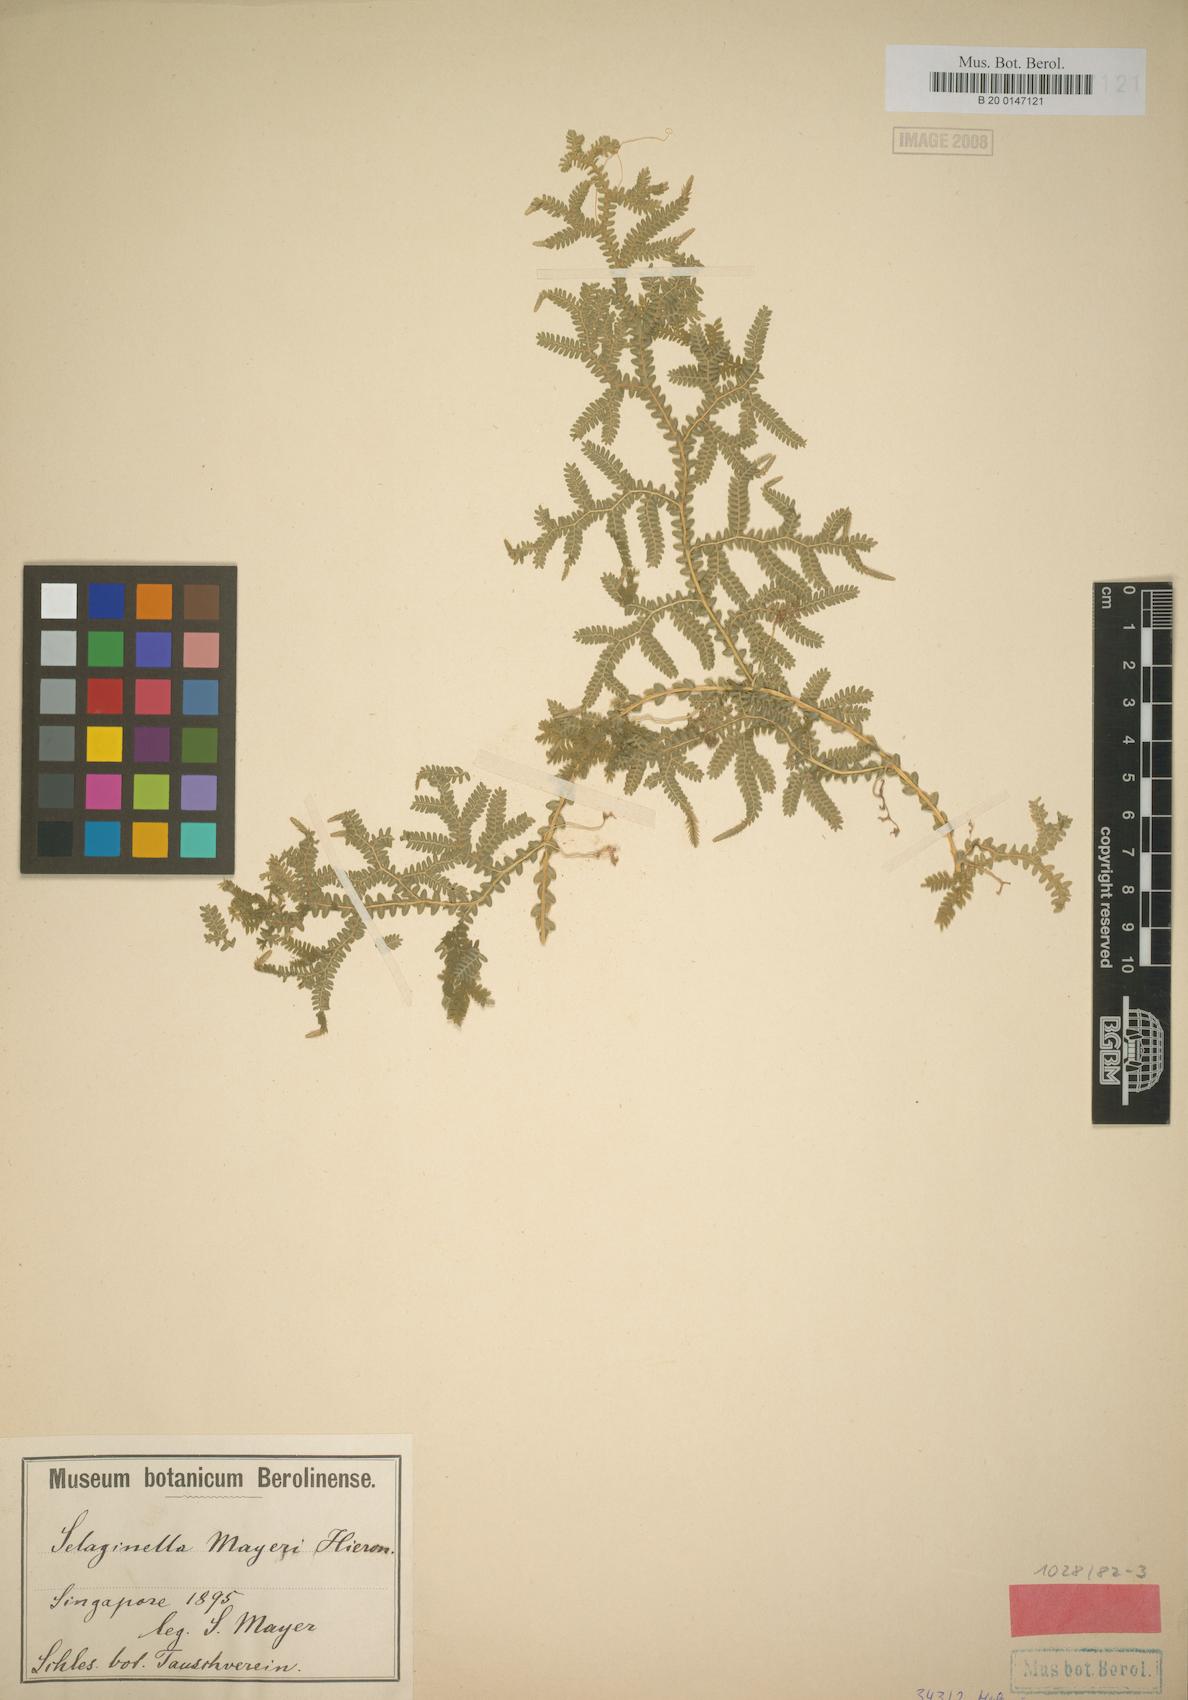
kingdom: Plantae
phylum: Tracheophyta
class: Lycopodiopsida
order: Selaginellales
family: Selaginellaceae
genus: Selaginella
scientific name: Selaginella mayeri
